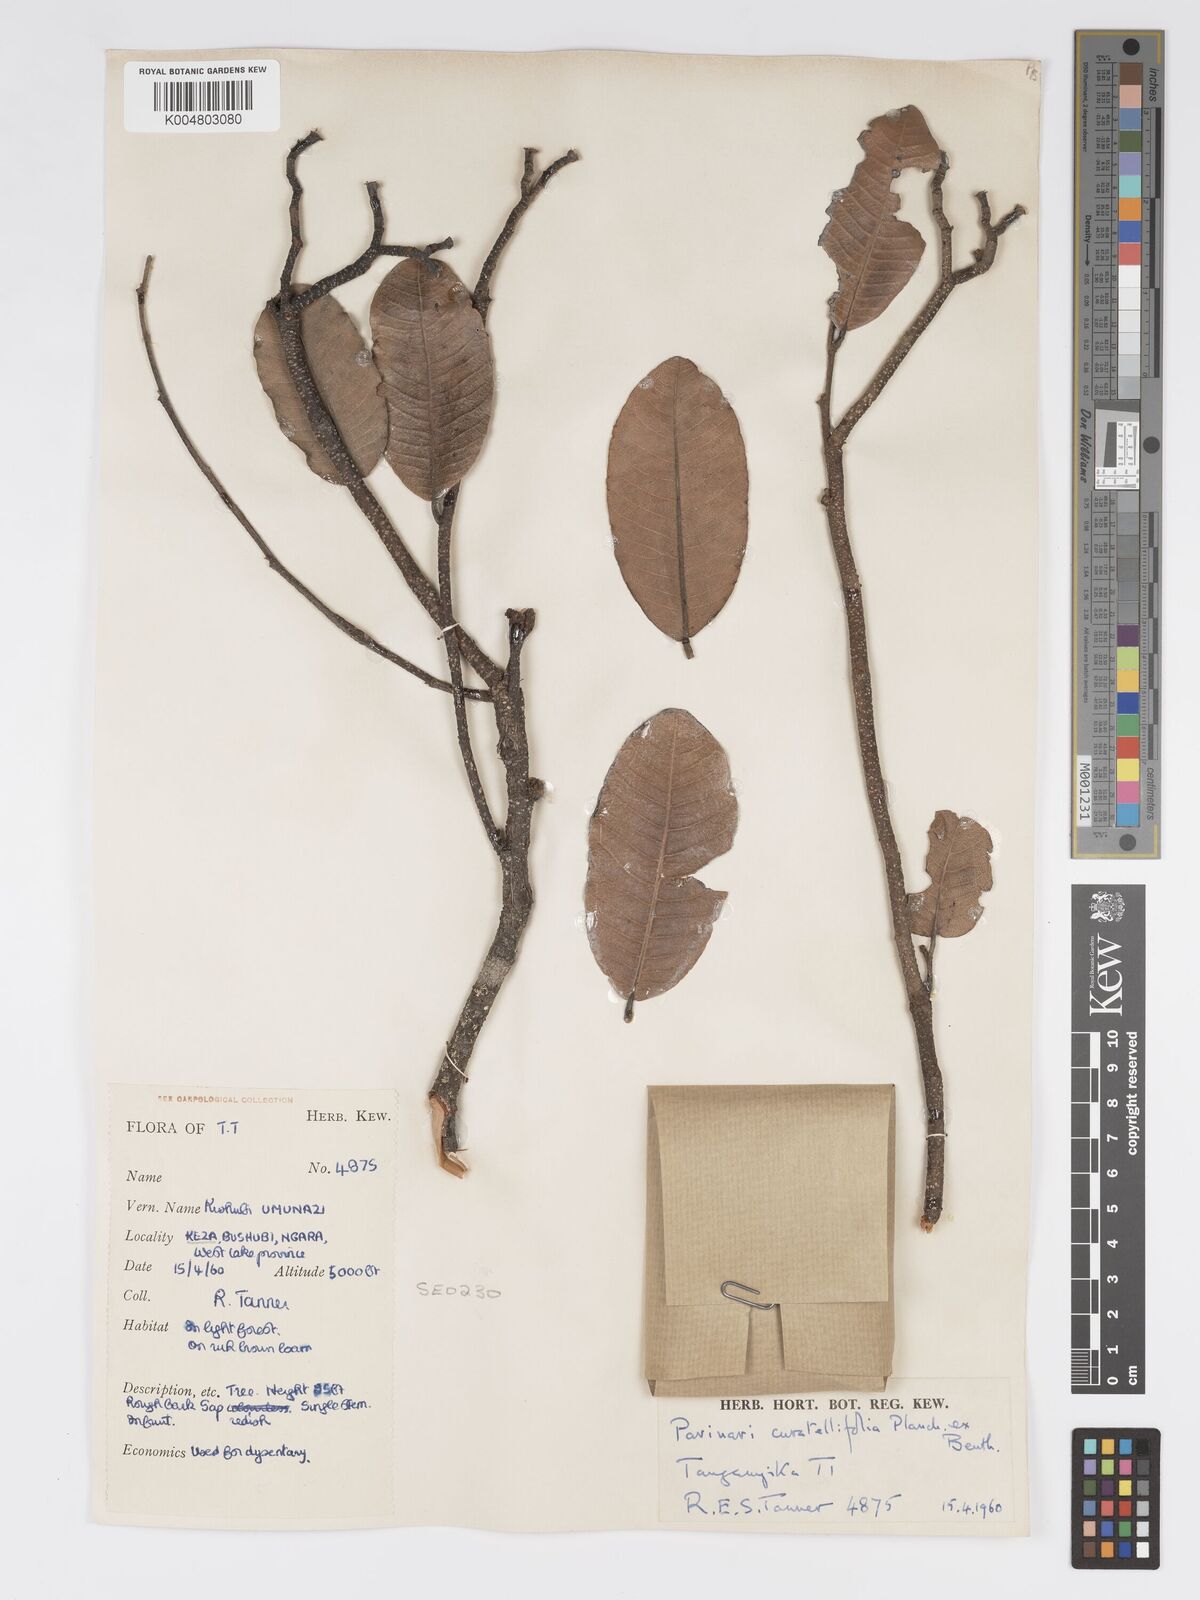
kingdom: Plantae
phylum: Tracheophyta
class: Magnoliopsida
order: Malpighiales
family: Chrysobalanaceae
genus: Parinari
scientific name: Parinari curatellifolia
